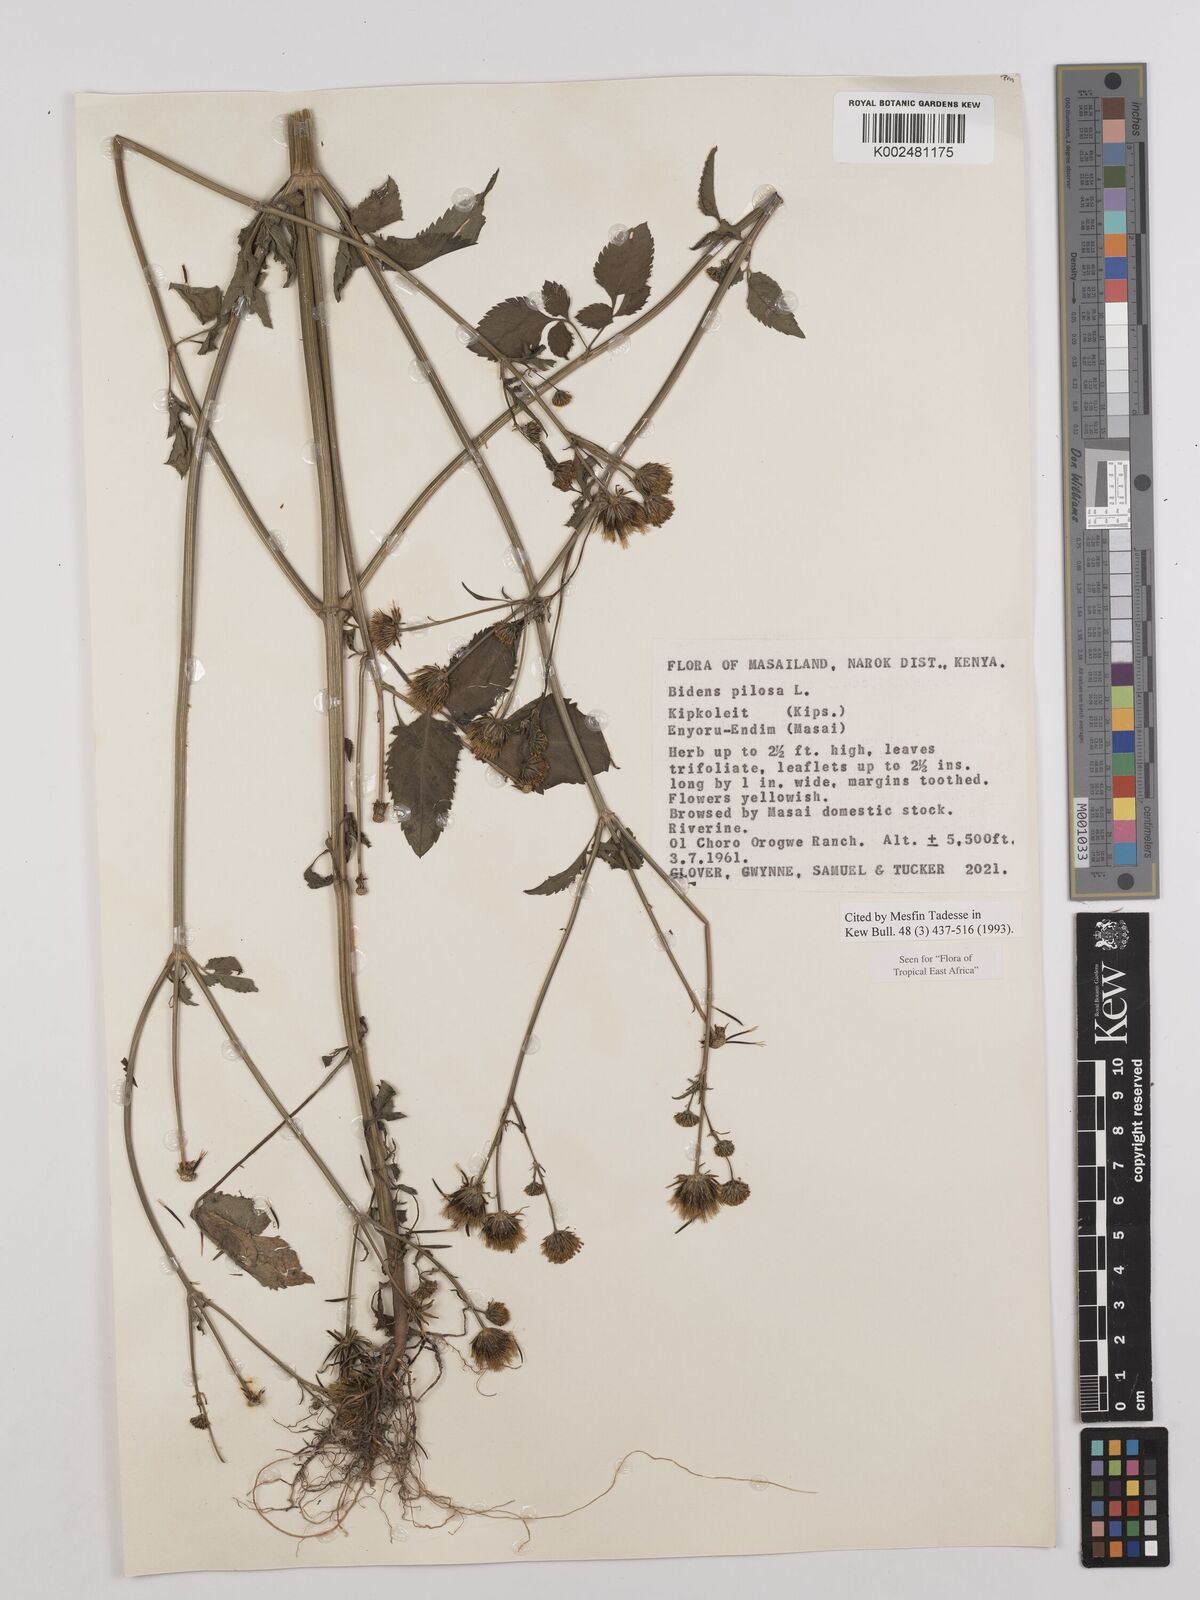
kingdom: Plantae
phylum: Tracheophyta
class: Magnoliopsida
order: Asterales
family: Asteraceae
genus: Bidens
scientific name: Bidens pilosa
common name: Black-jack
